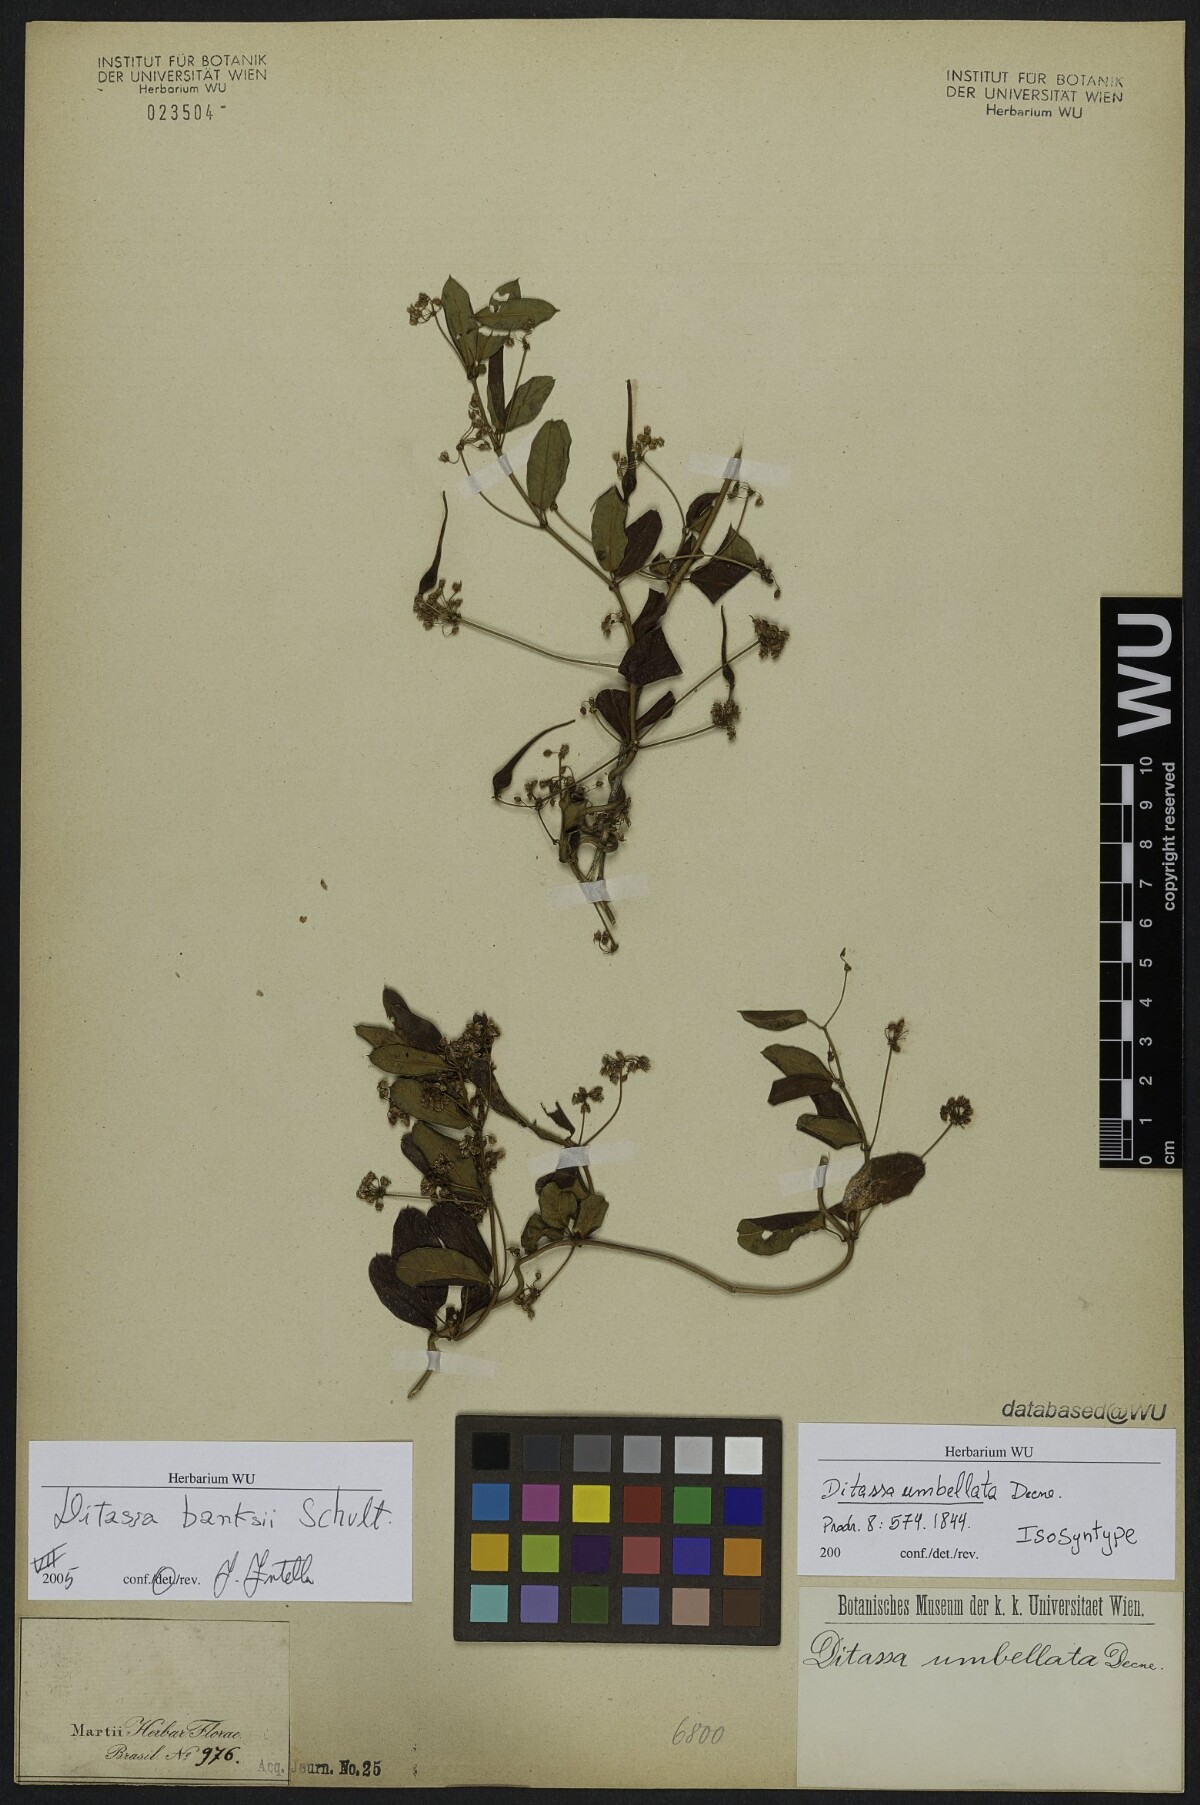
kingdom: Plantae
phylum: Tracheophyta
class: Magnoliopsida
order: Gentianales
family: Apocynaceae
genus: Ditassa
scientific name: Ditassa banksii
